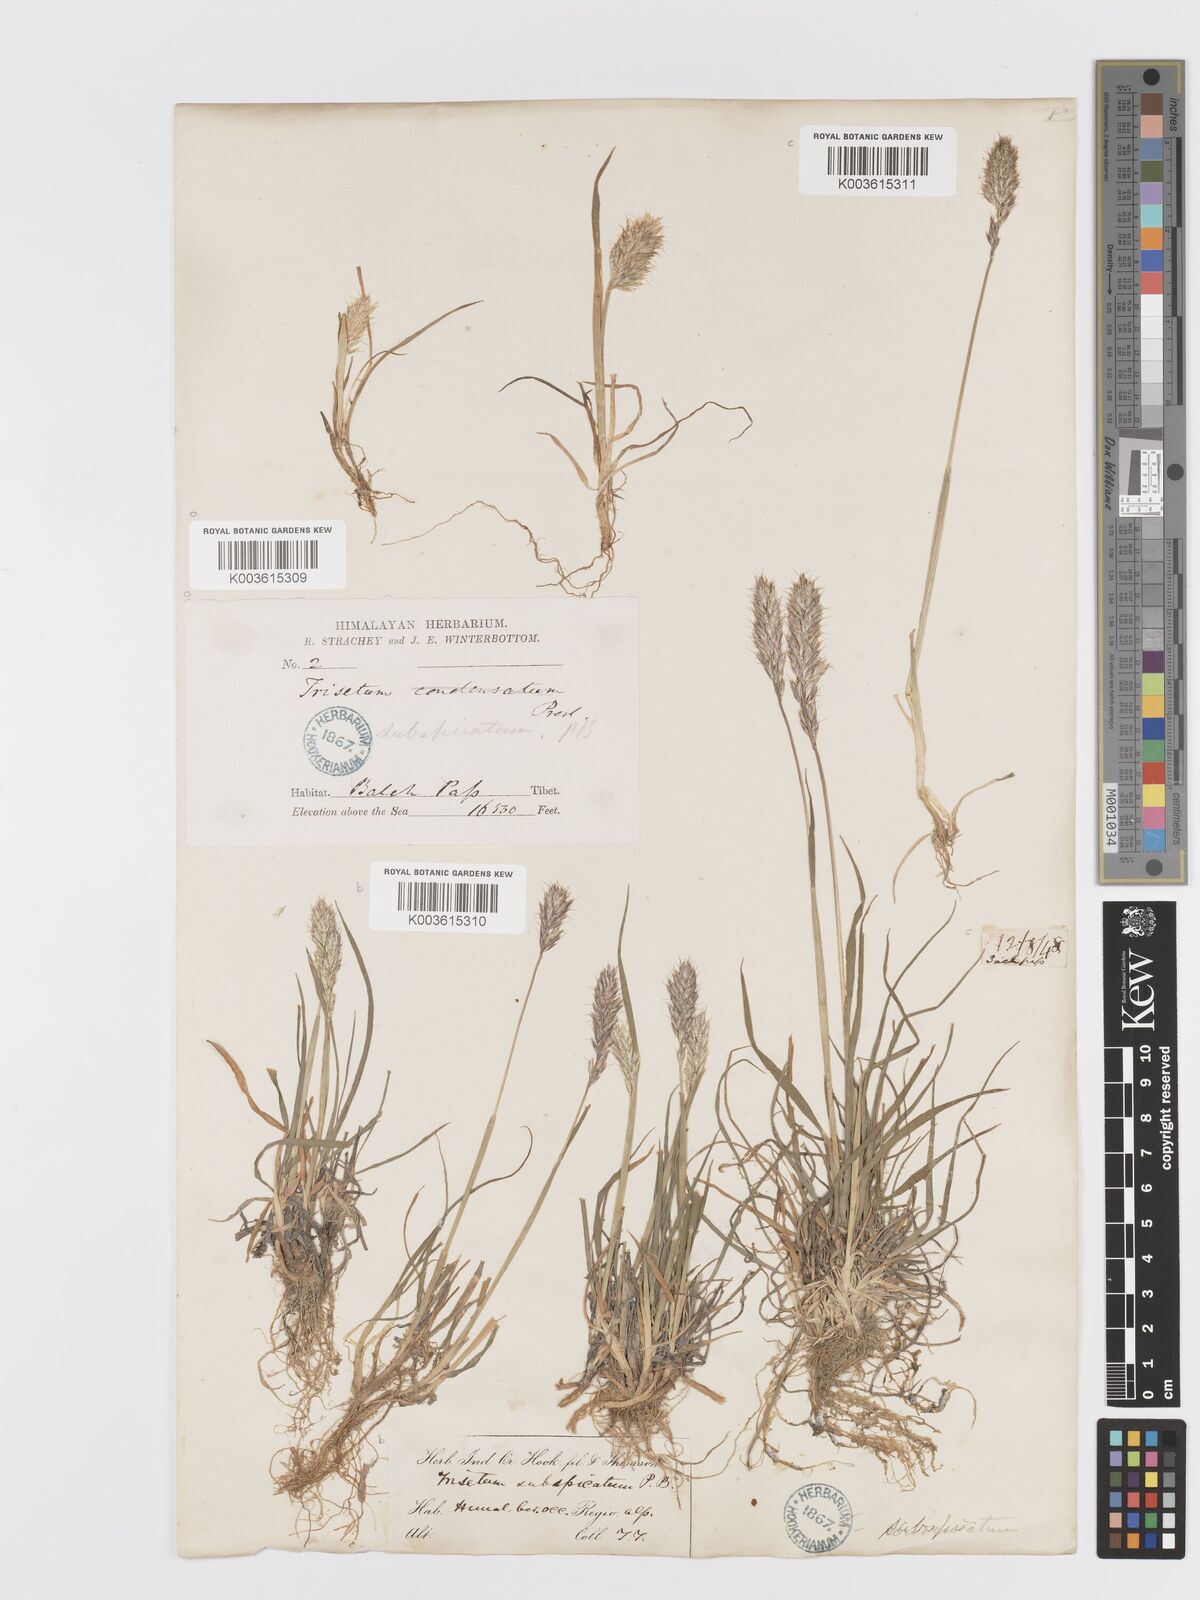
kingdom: Plantae
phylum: Tracheophyta
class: Liliopsida
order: Poales
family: Poaceae
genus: Koeleria
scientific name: Koeleria spicata
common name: Mountain trisetum
